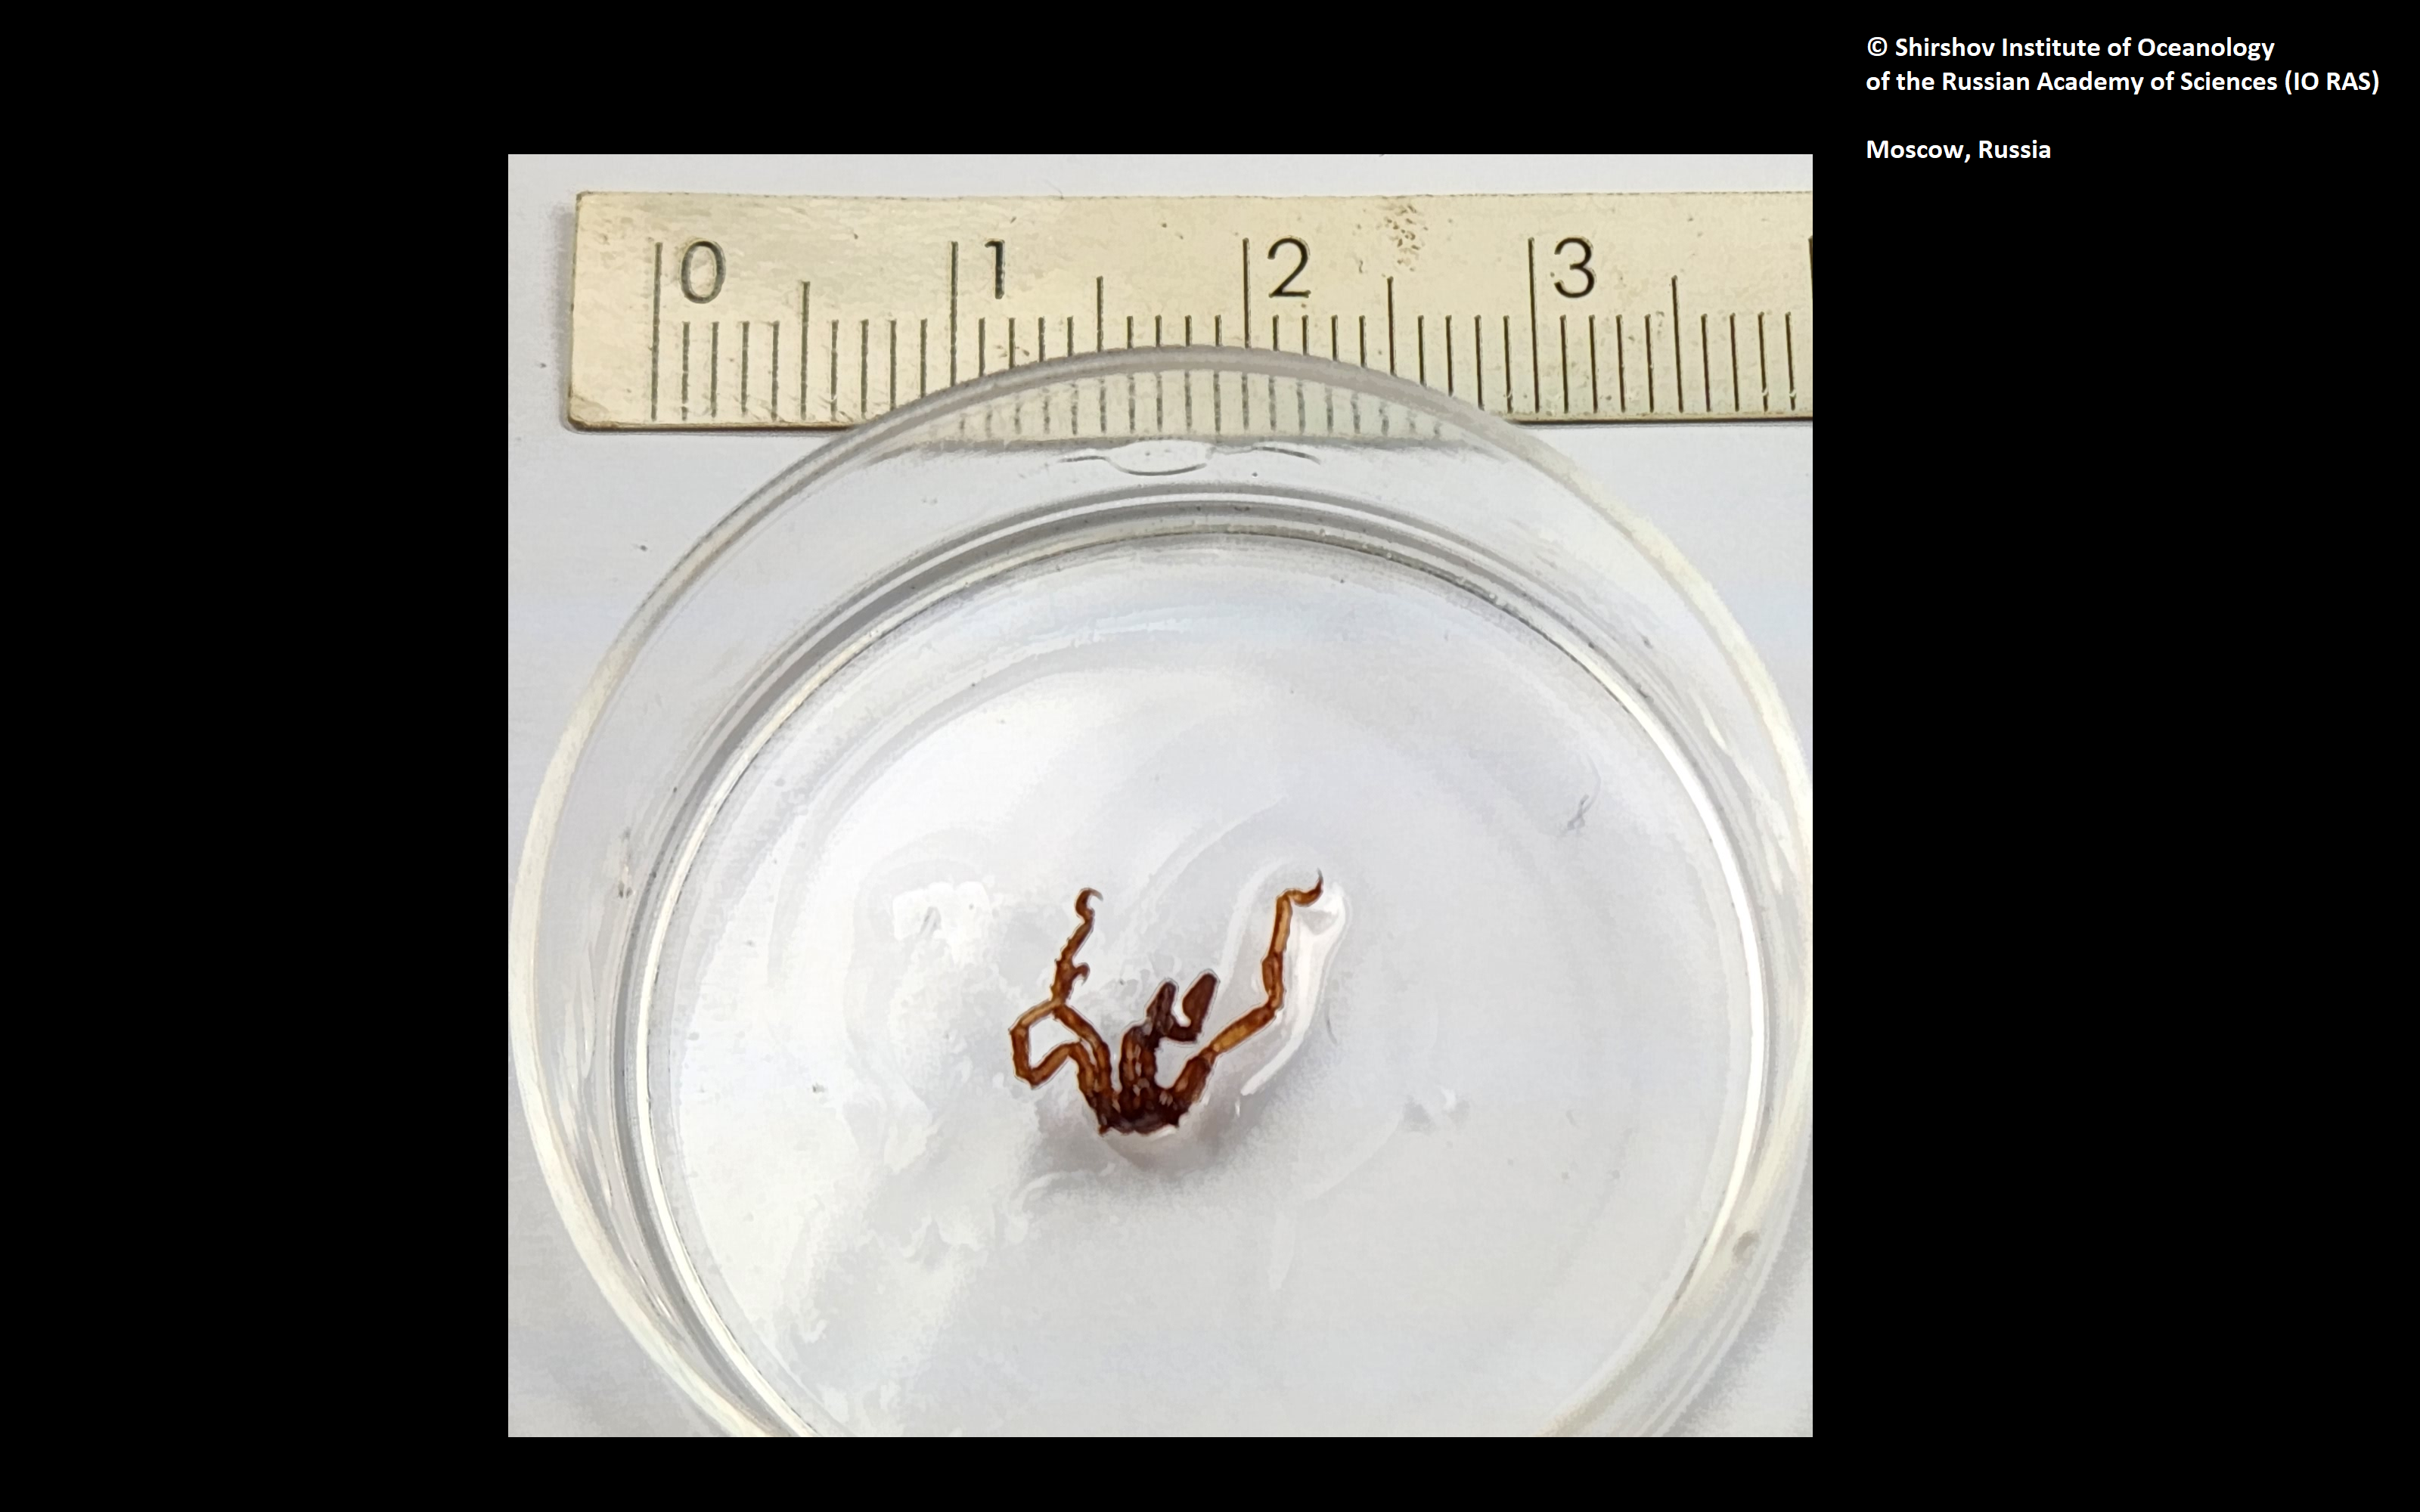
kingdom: Animalia
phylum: Arthropoda
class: Pycnogonida
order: Pantopoda
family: Phoxichilidiidae
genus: Anoplodactylus
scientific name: Anoplodactylus tuberculosus
